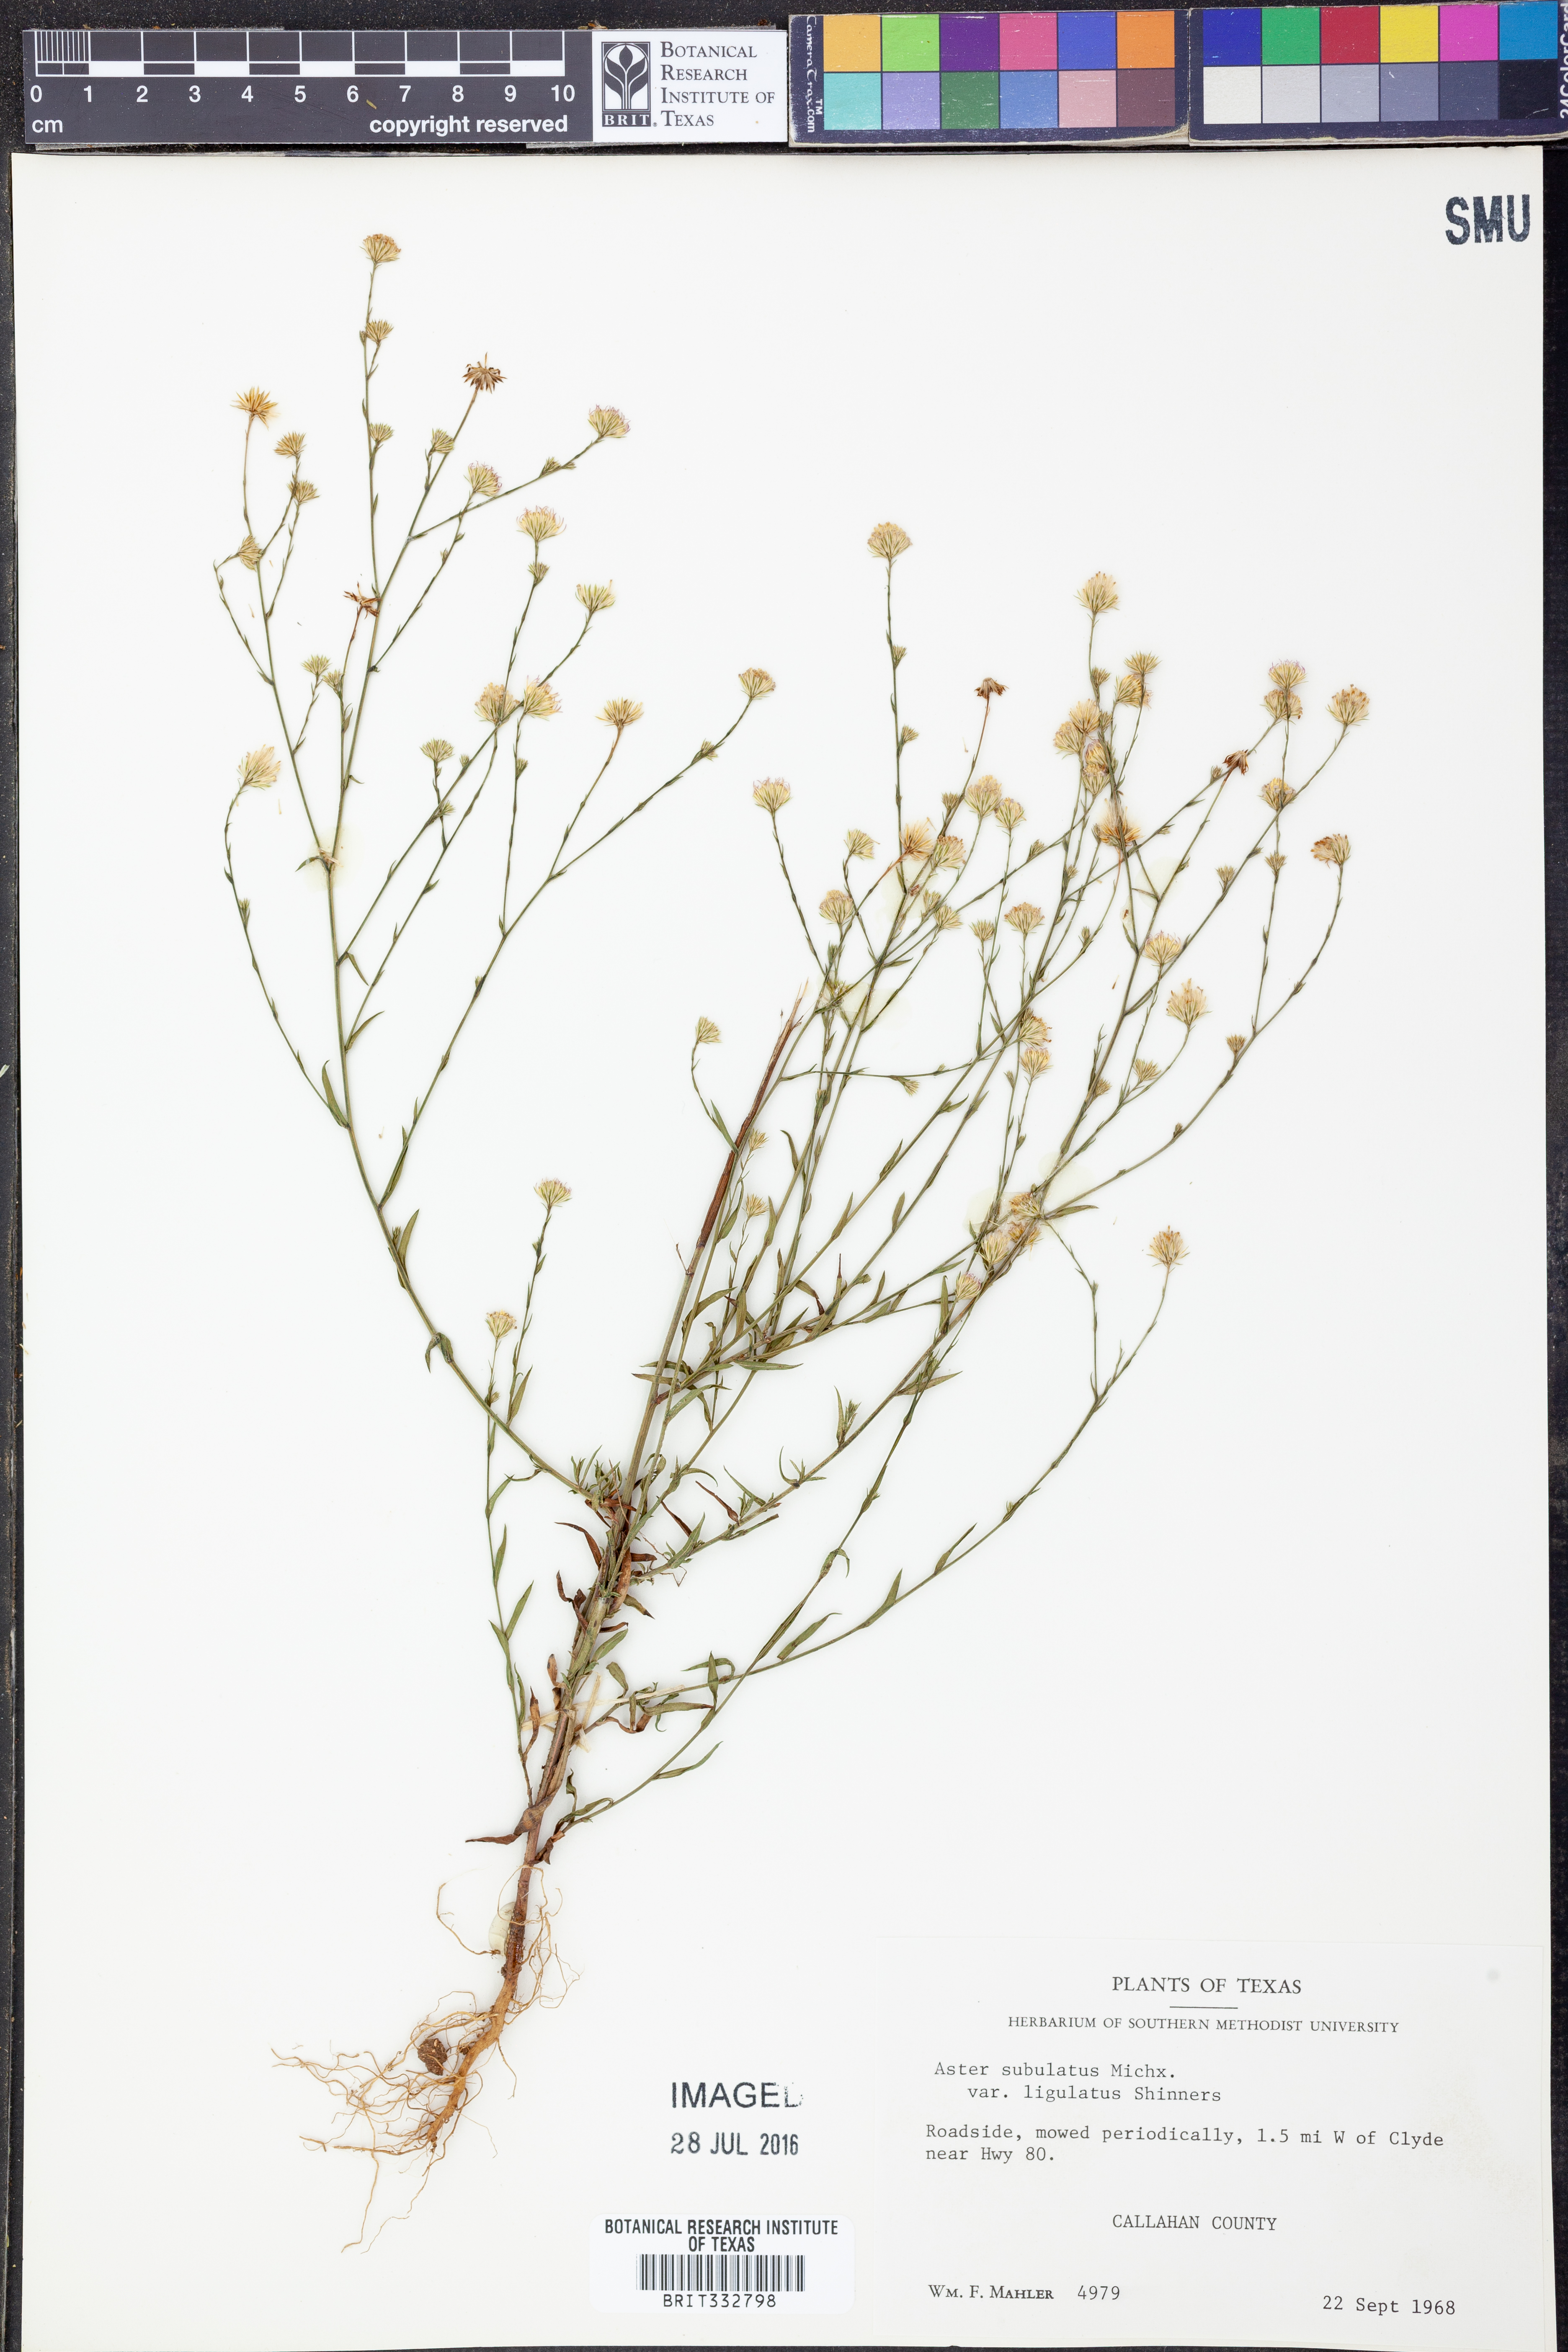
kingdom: Plantae
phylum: Tracheophyta
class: Magnoliopsida
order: Asterales
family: Asteraceae
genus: Symphyotrichum
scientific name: Symphyotrichum divaricatum
